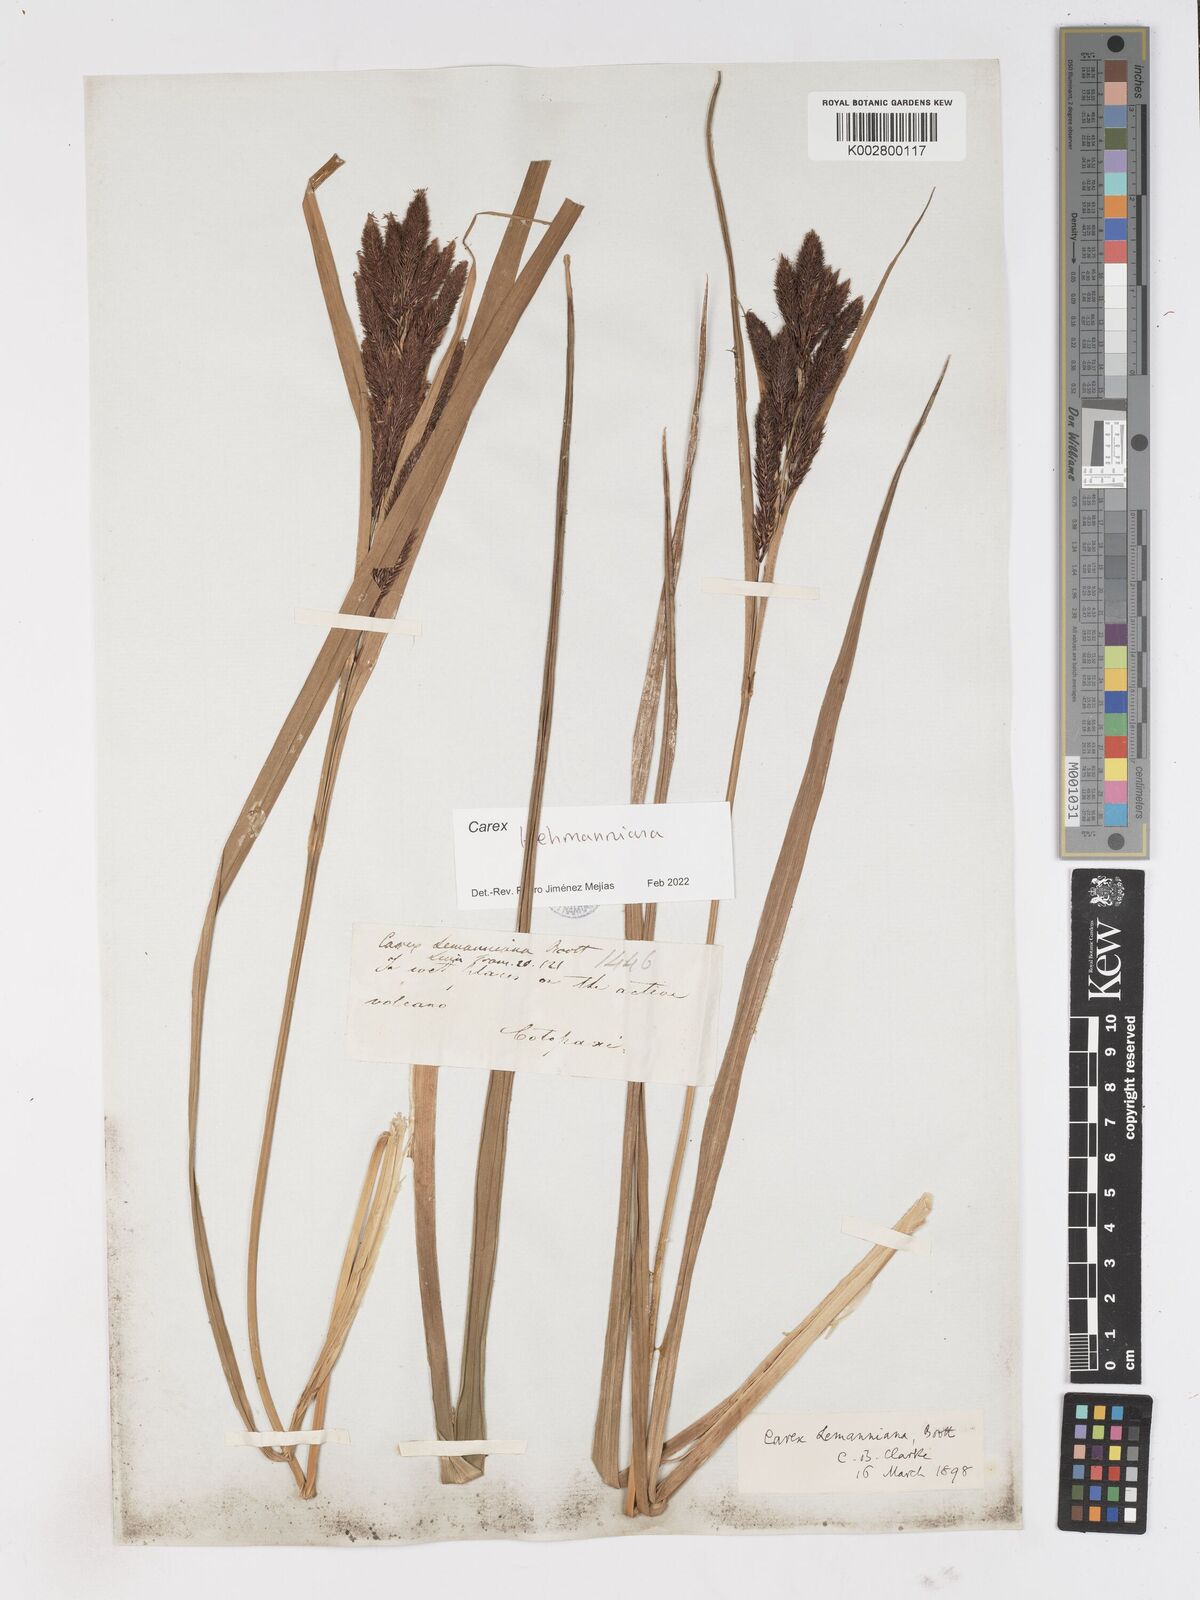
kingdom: Plantae
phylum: Tracheophyta
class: Liliopsida
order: Poales
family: Cyperaceae
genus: Carex
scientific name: Carex lemanniana
